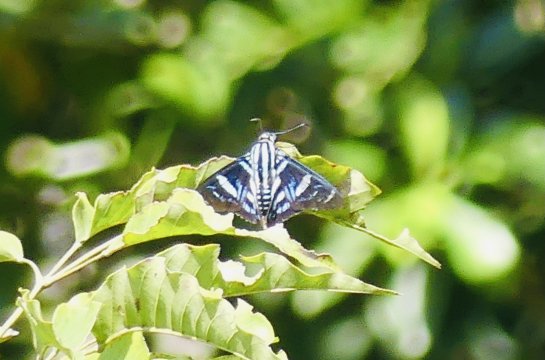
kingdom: Animalia
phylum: Arthropoda
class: Insecta
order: Lepidoptera
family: Hesperiidae
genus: Jemadia
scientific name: Jemadia pseudognetus
